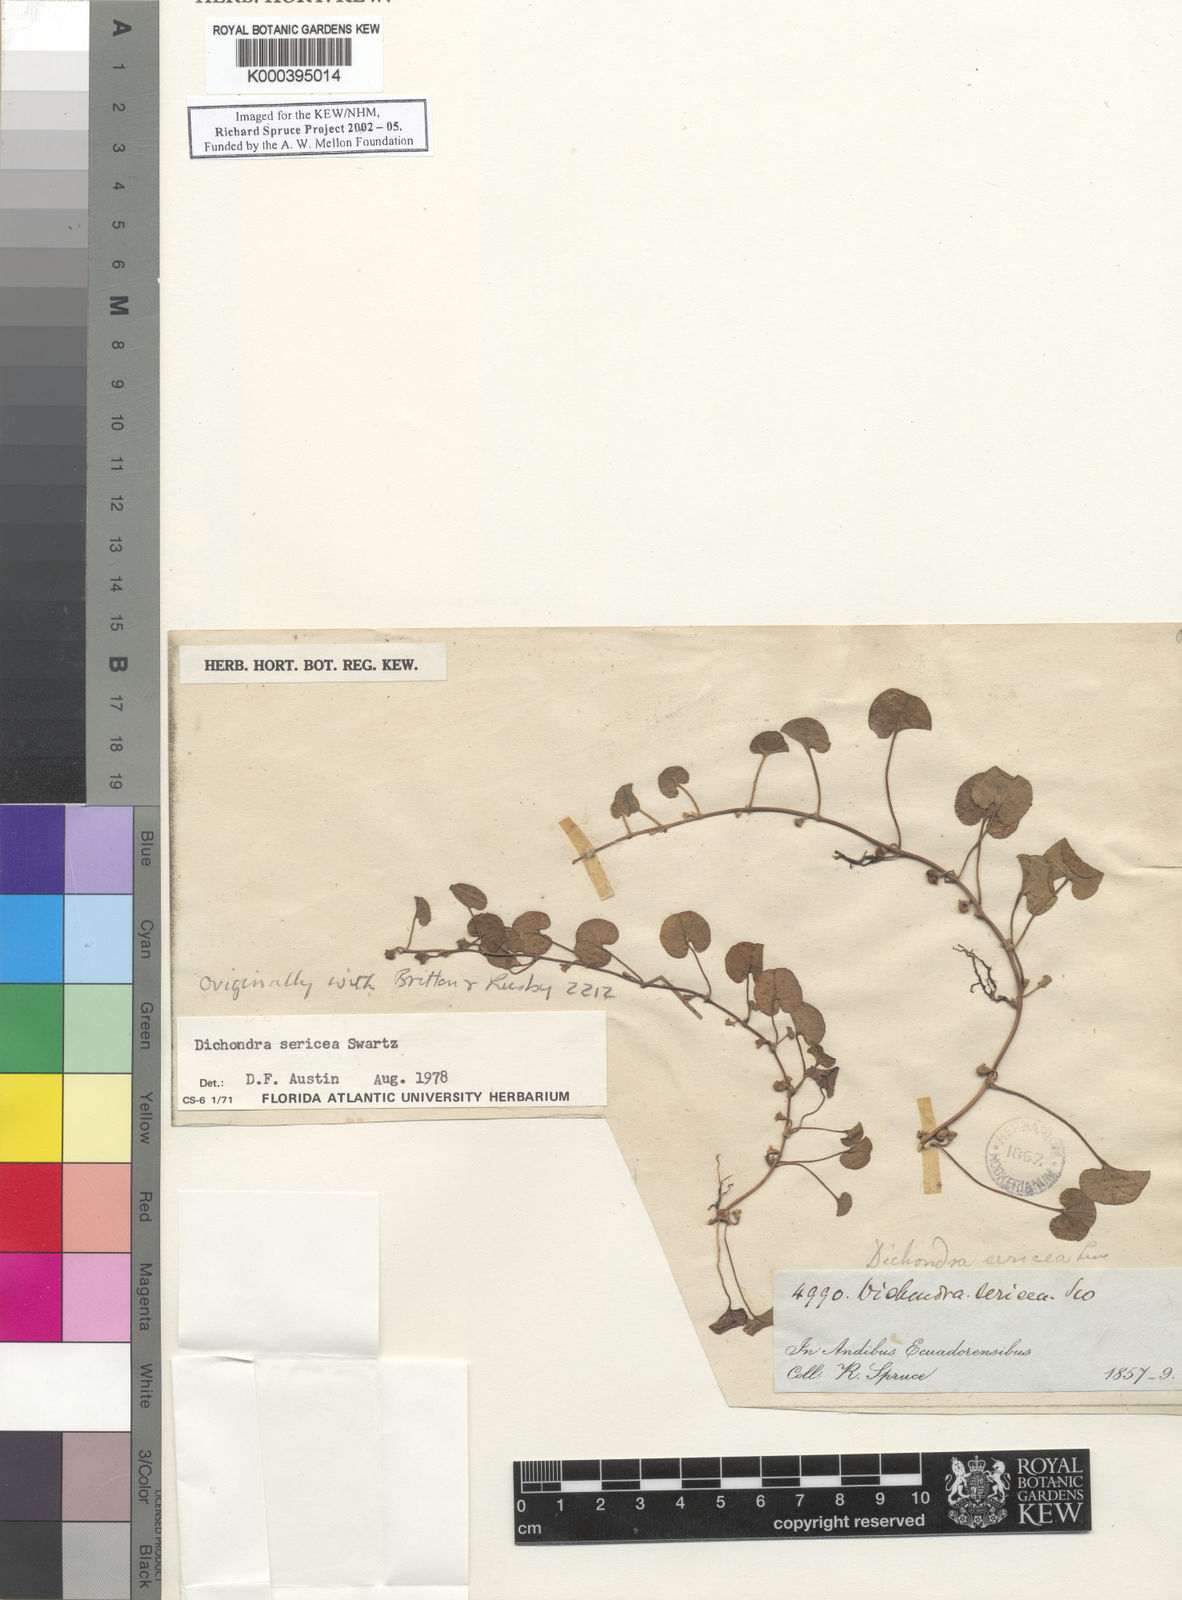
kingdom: Plantae
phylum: Tracheophyta
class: Magnoliopsida
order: Solanales
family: Convolvulaceae
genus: Dichondra
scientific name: Dichondra sericea
